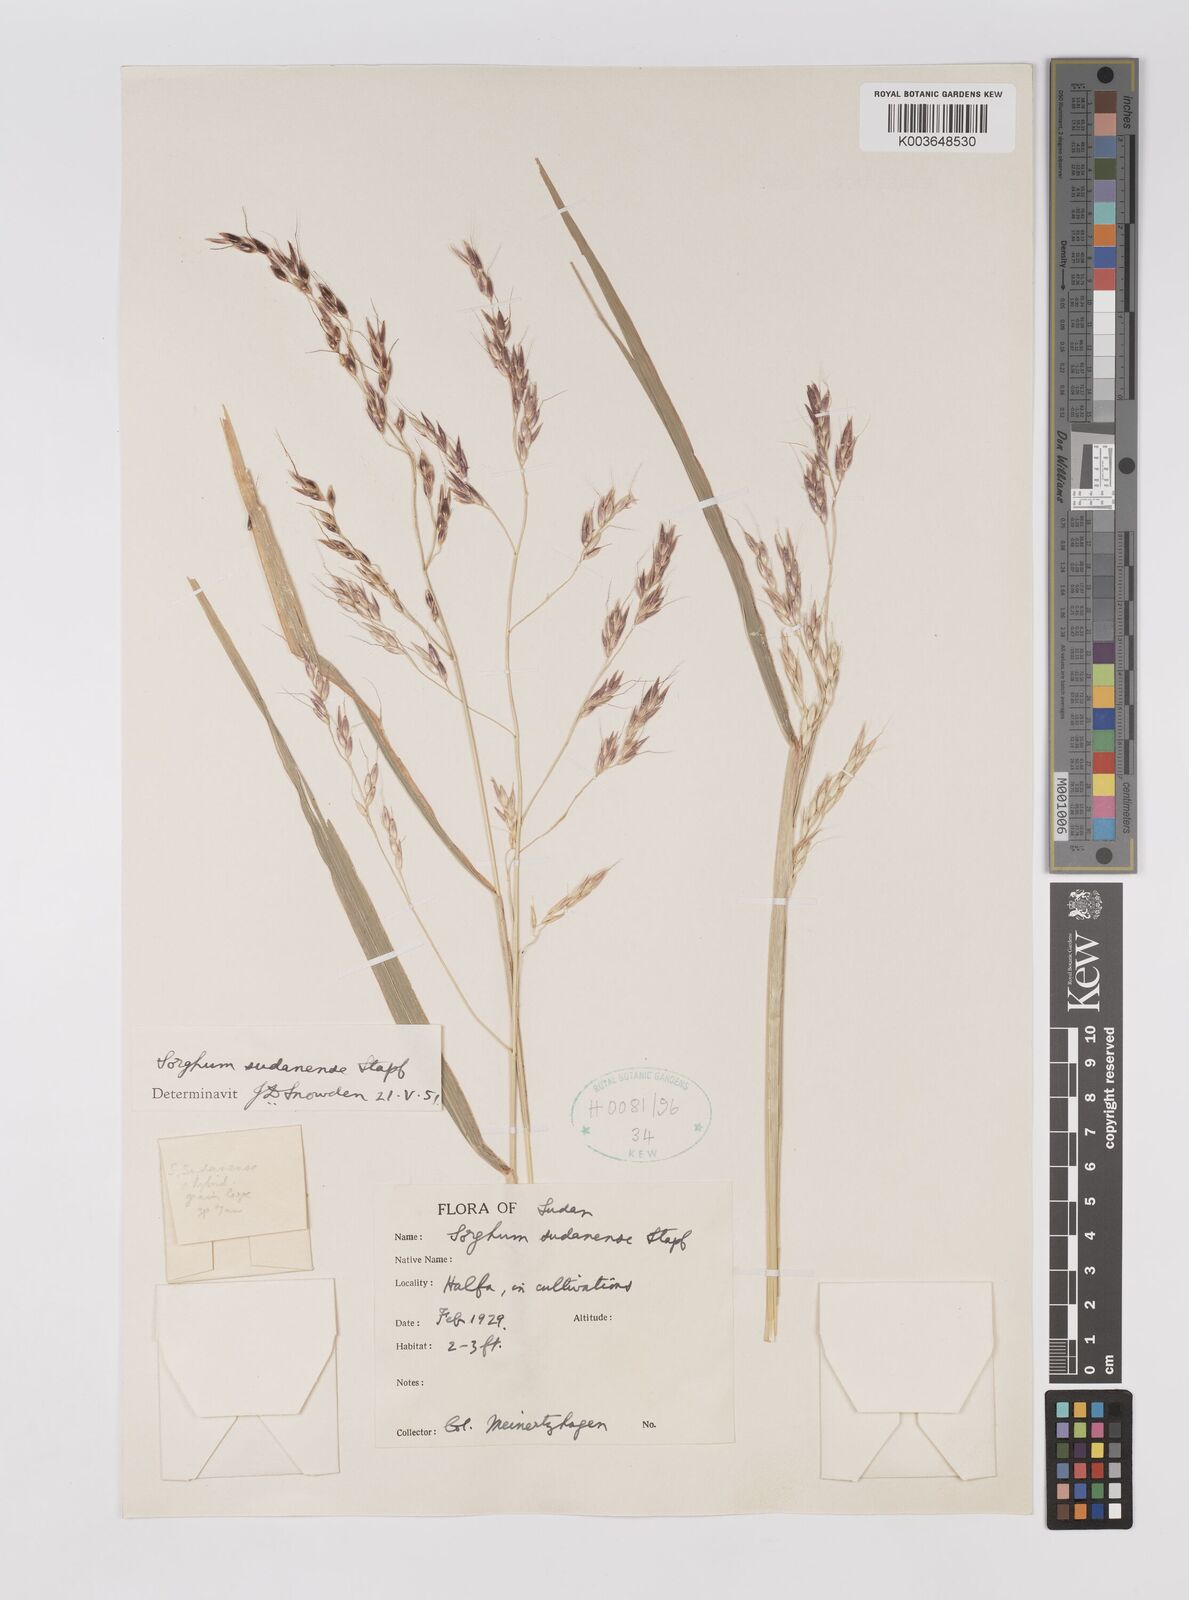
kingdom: Plantae
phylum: Tracheophyta
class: Liliopsida
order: Poales
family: Poaceae
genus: Sorghum
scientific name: Sorghum drummondii
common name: Sudangrass
